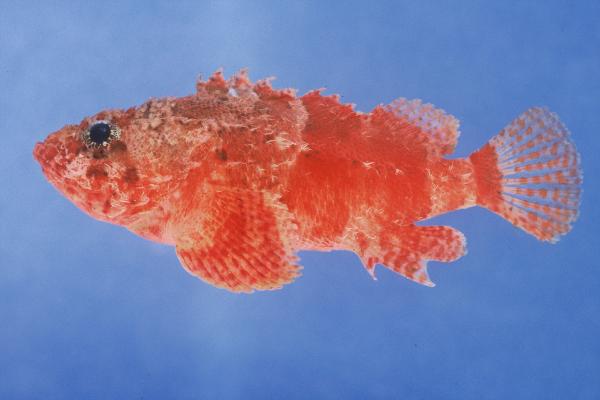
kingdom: Animalia
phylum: Chordata
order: Scorpaeniformes
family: Scorpaenidae
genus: Scorpaenodes
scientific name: Scorpaenodes parvipinnis
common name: Coral scorpionfish
